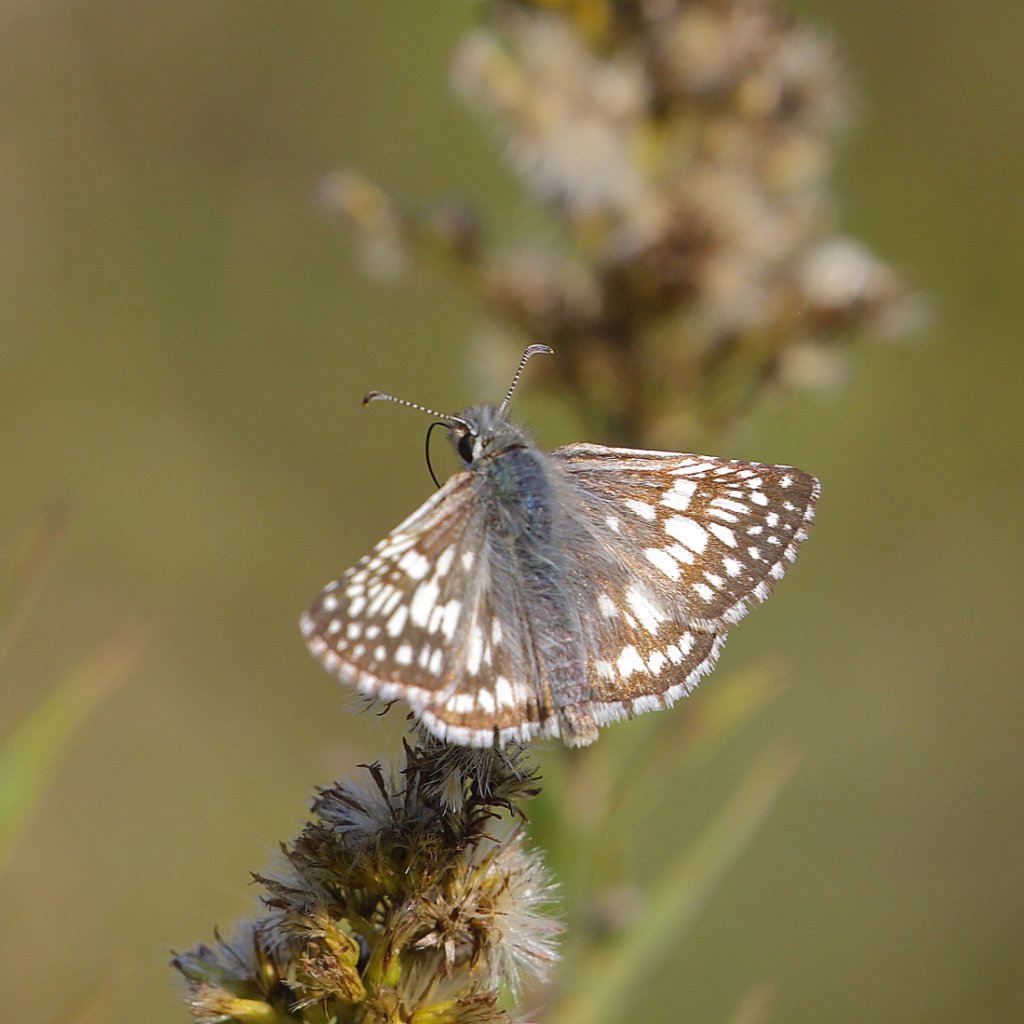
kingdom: Animalia
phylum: Arthropoda
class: Insecta
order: Lepidoptera
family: Hesperiidae
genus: Pyrgus
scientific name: Pyrgus communis
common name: Common Checkered-Skipper
